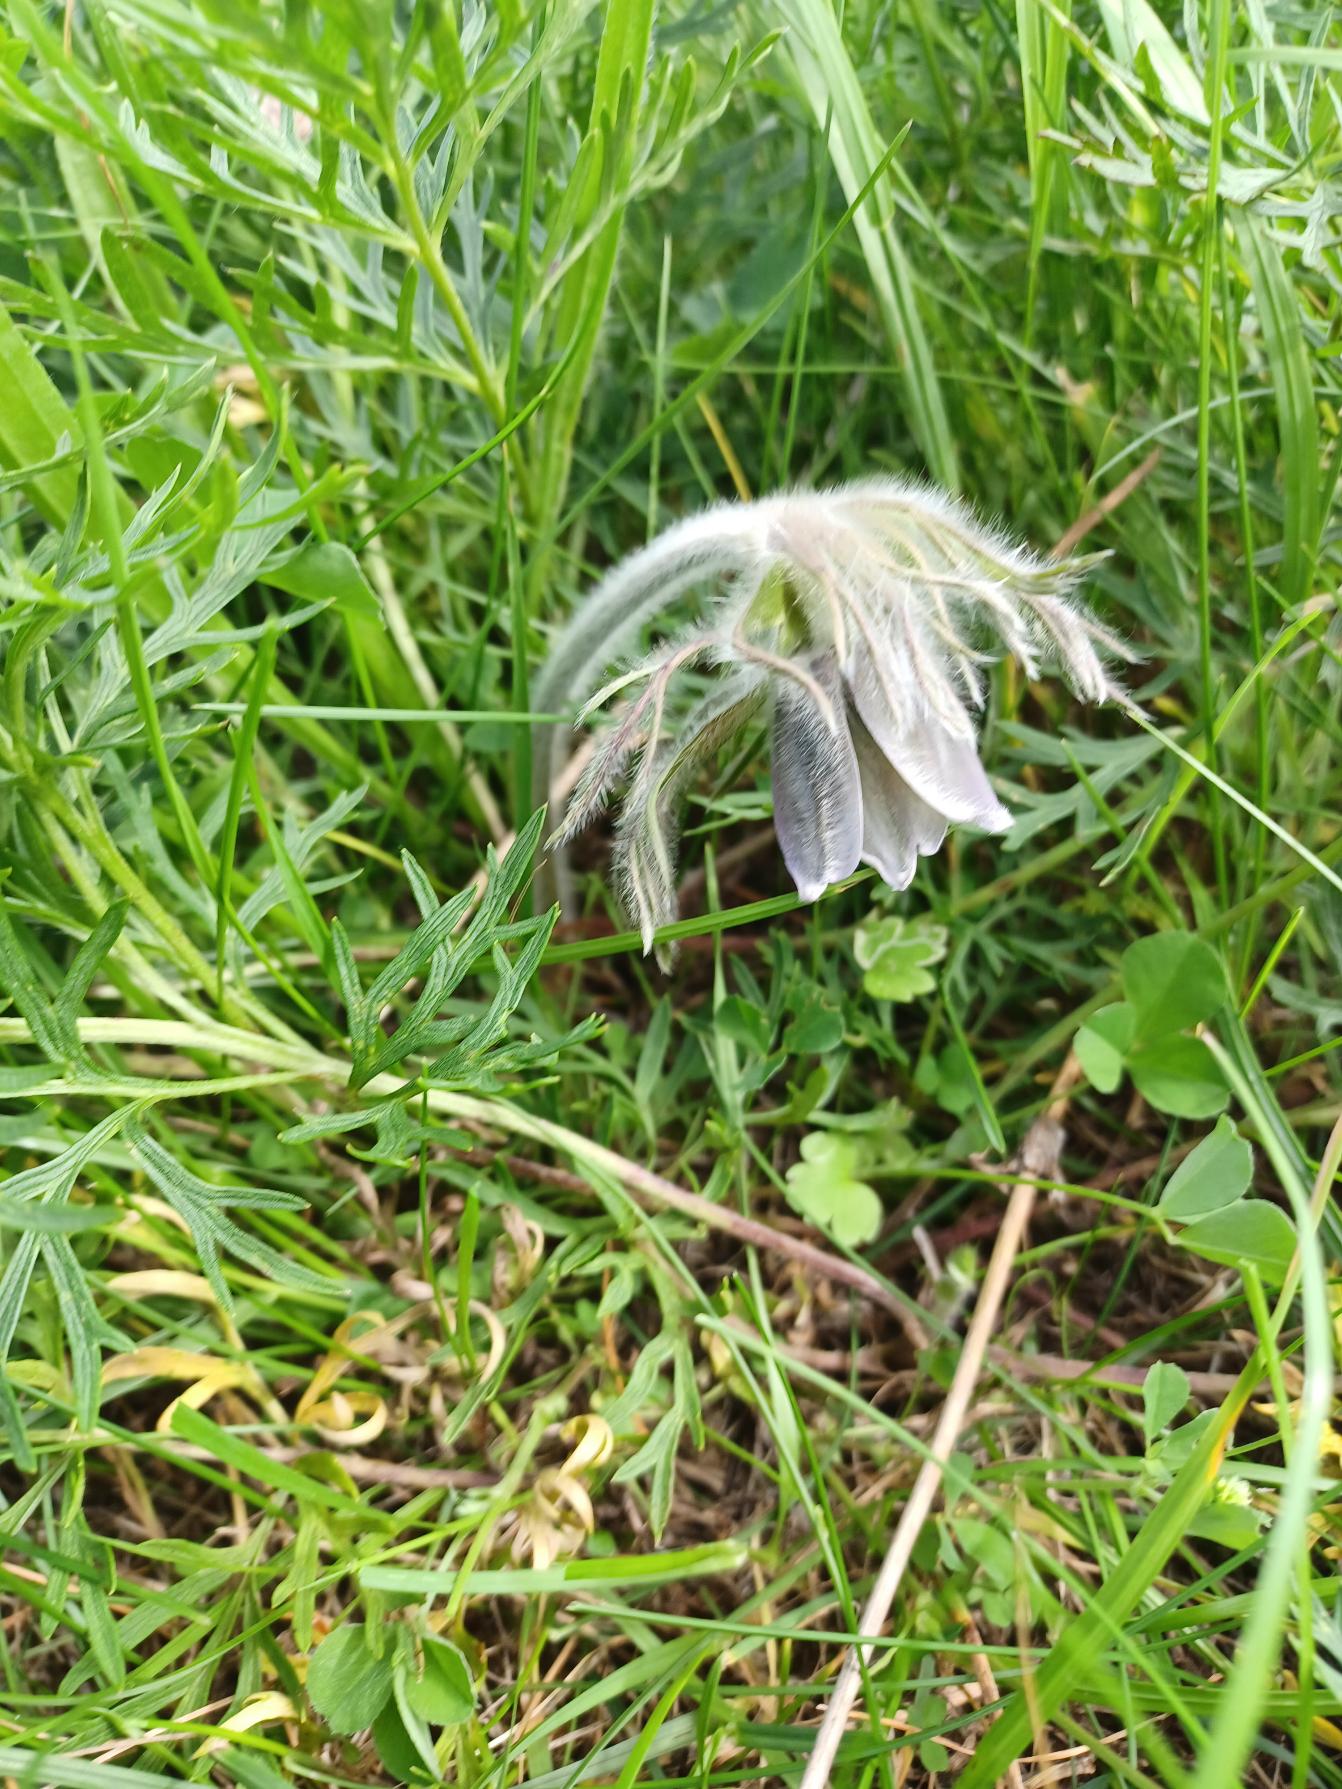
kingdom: Plantae
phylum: Tracheophyta
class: Magnoliopsida
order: Ranunculales
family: Ranunculaceae
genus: Pulsatilla
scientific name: Pulsatilla pratensis
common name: Nikkende kobjælde
